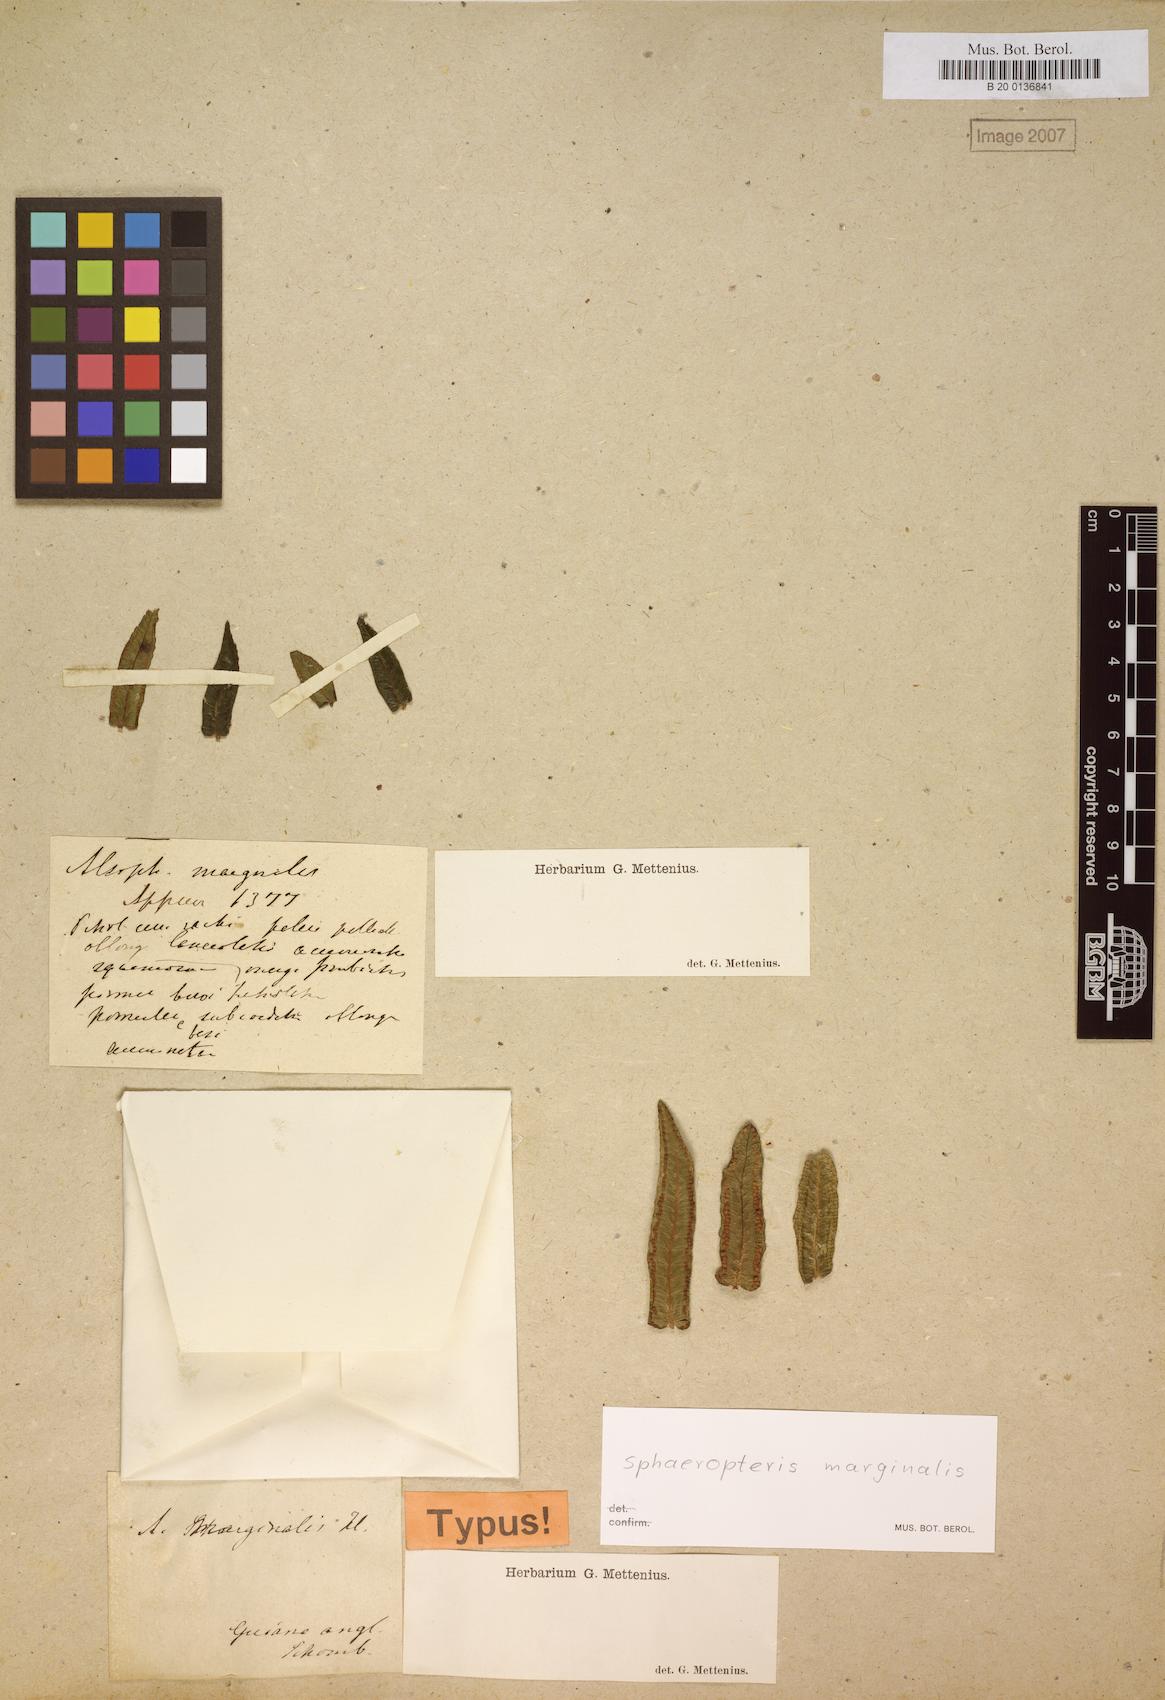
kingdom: Plantae
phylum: Tracheophyta
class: Polypodiopsida
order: Cyatheales
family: Cyatheaceae
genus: Cyathea
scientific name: Cyathea marginalis
